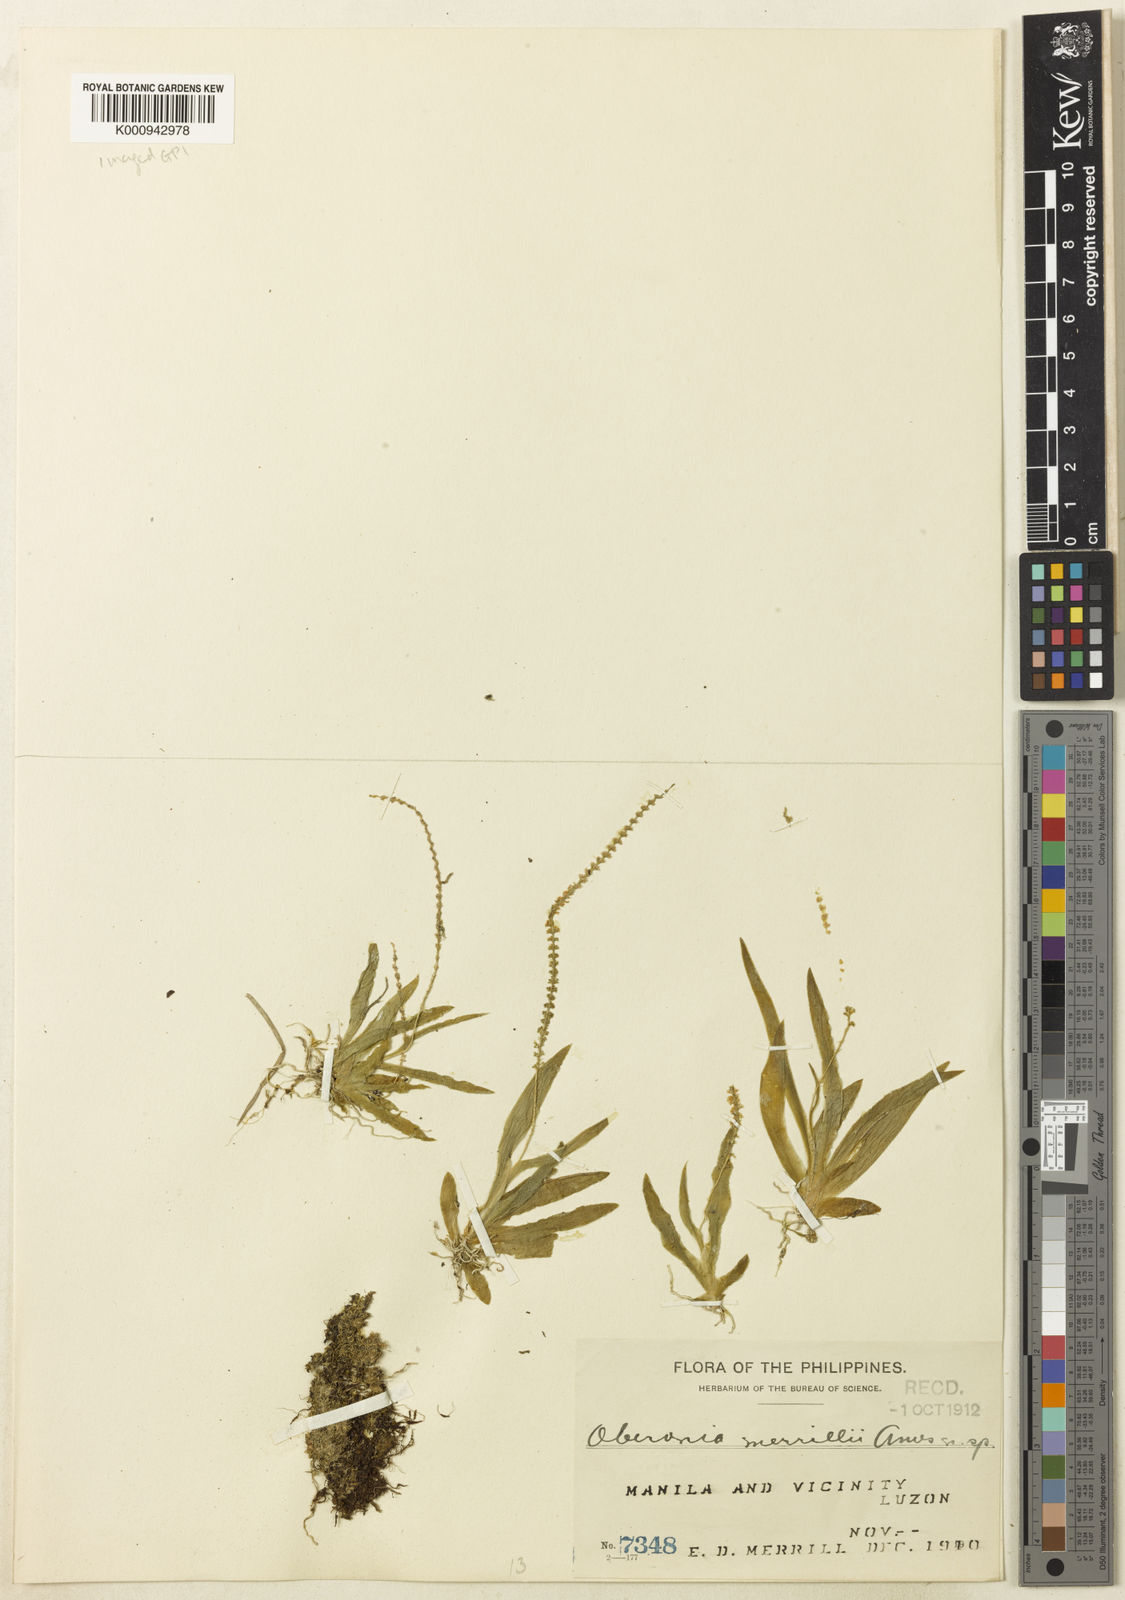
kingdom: Plantae
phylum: Tracheophyta
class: Liliopsida
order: Asparagales
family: Orchidaceae
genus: Oberonia
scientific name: Oberonia merrillii
